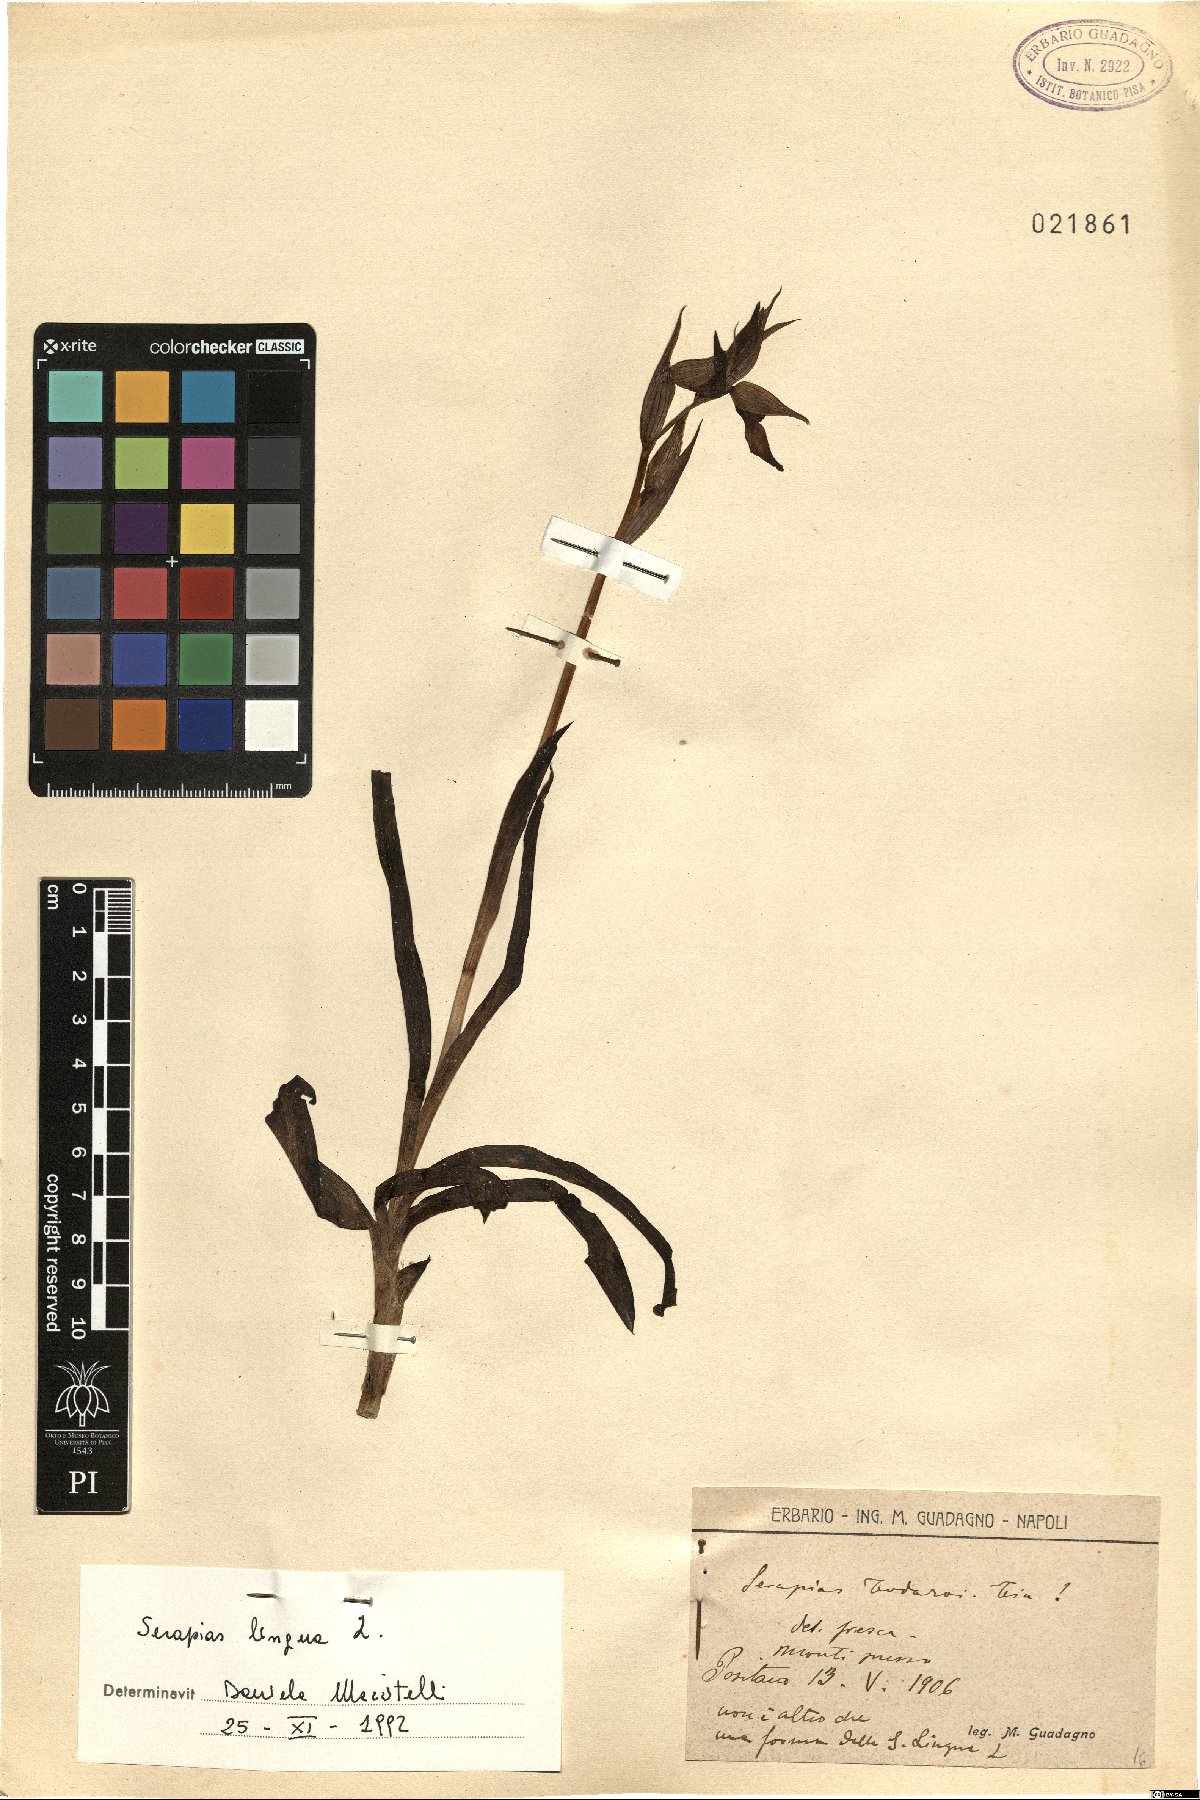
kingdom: Plantae
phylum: Tracheophyta
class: Liliopsida
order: Asparagales
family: Orchidaceae
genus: Serapias
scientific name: Serapias lingua
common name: Tongue-orchid
